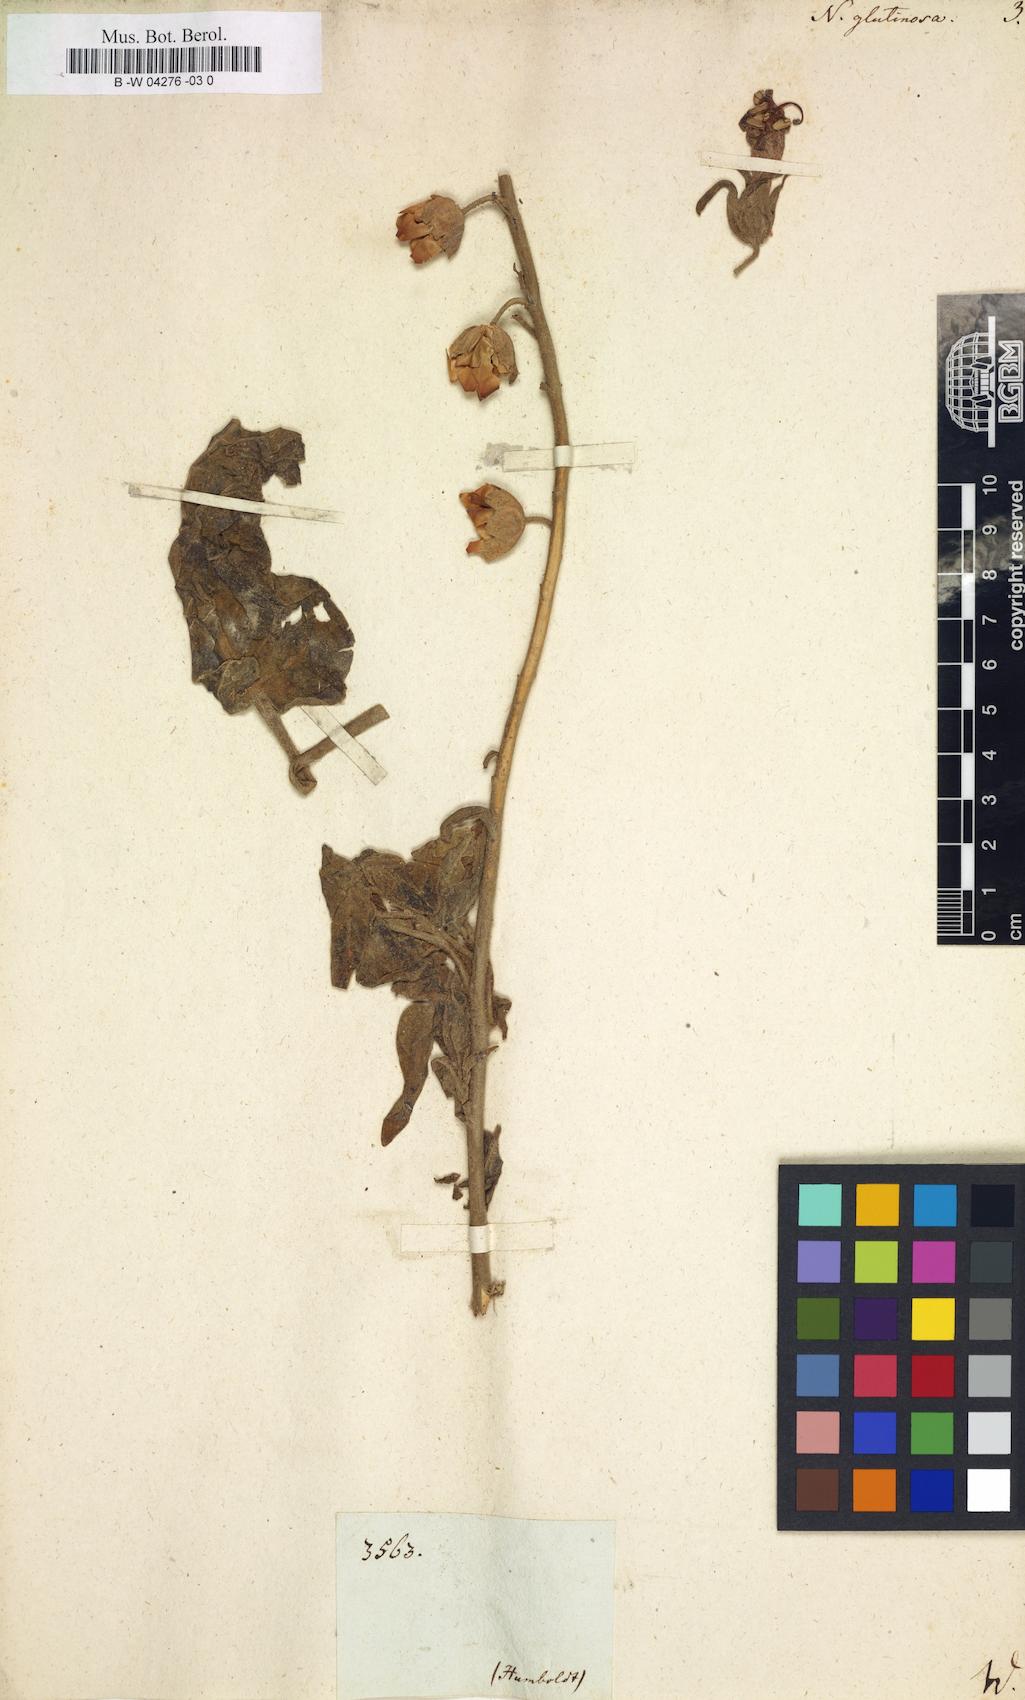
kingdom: Plantae
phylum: Tracheophyta
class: Magnoliopsida
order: Solanales
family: Solanaceae
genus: Nicotiana
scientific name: Nicotiana glutinosa
